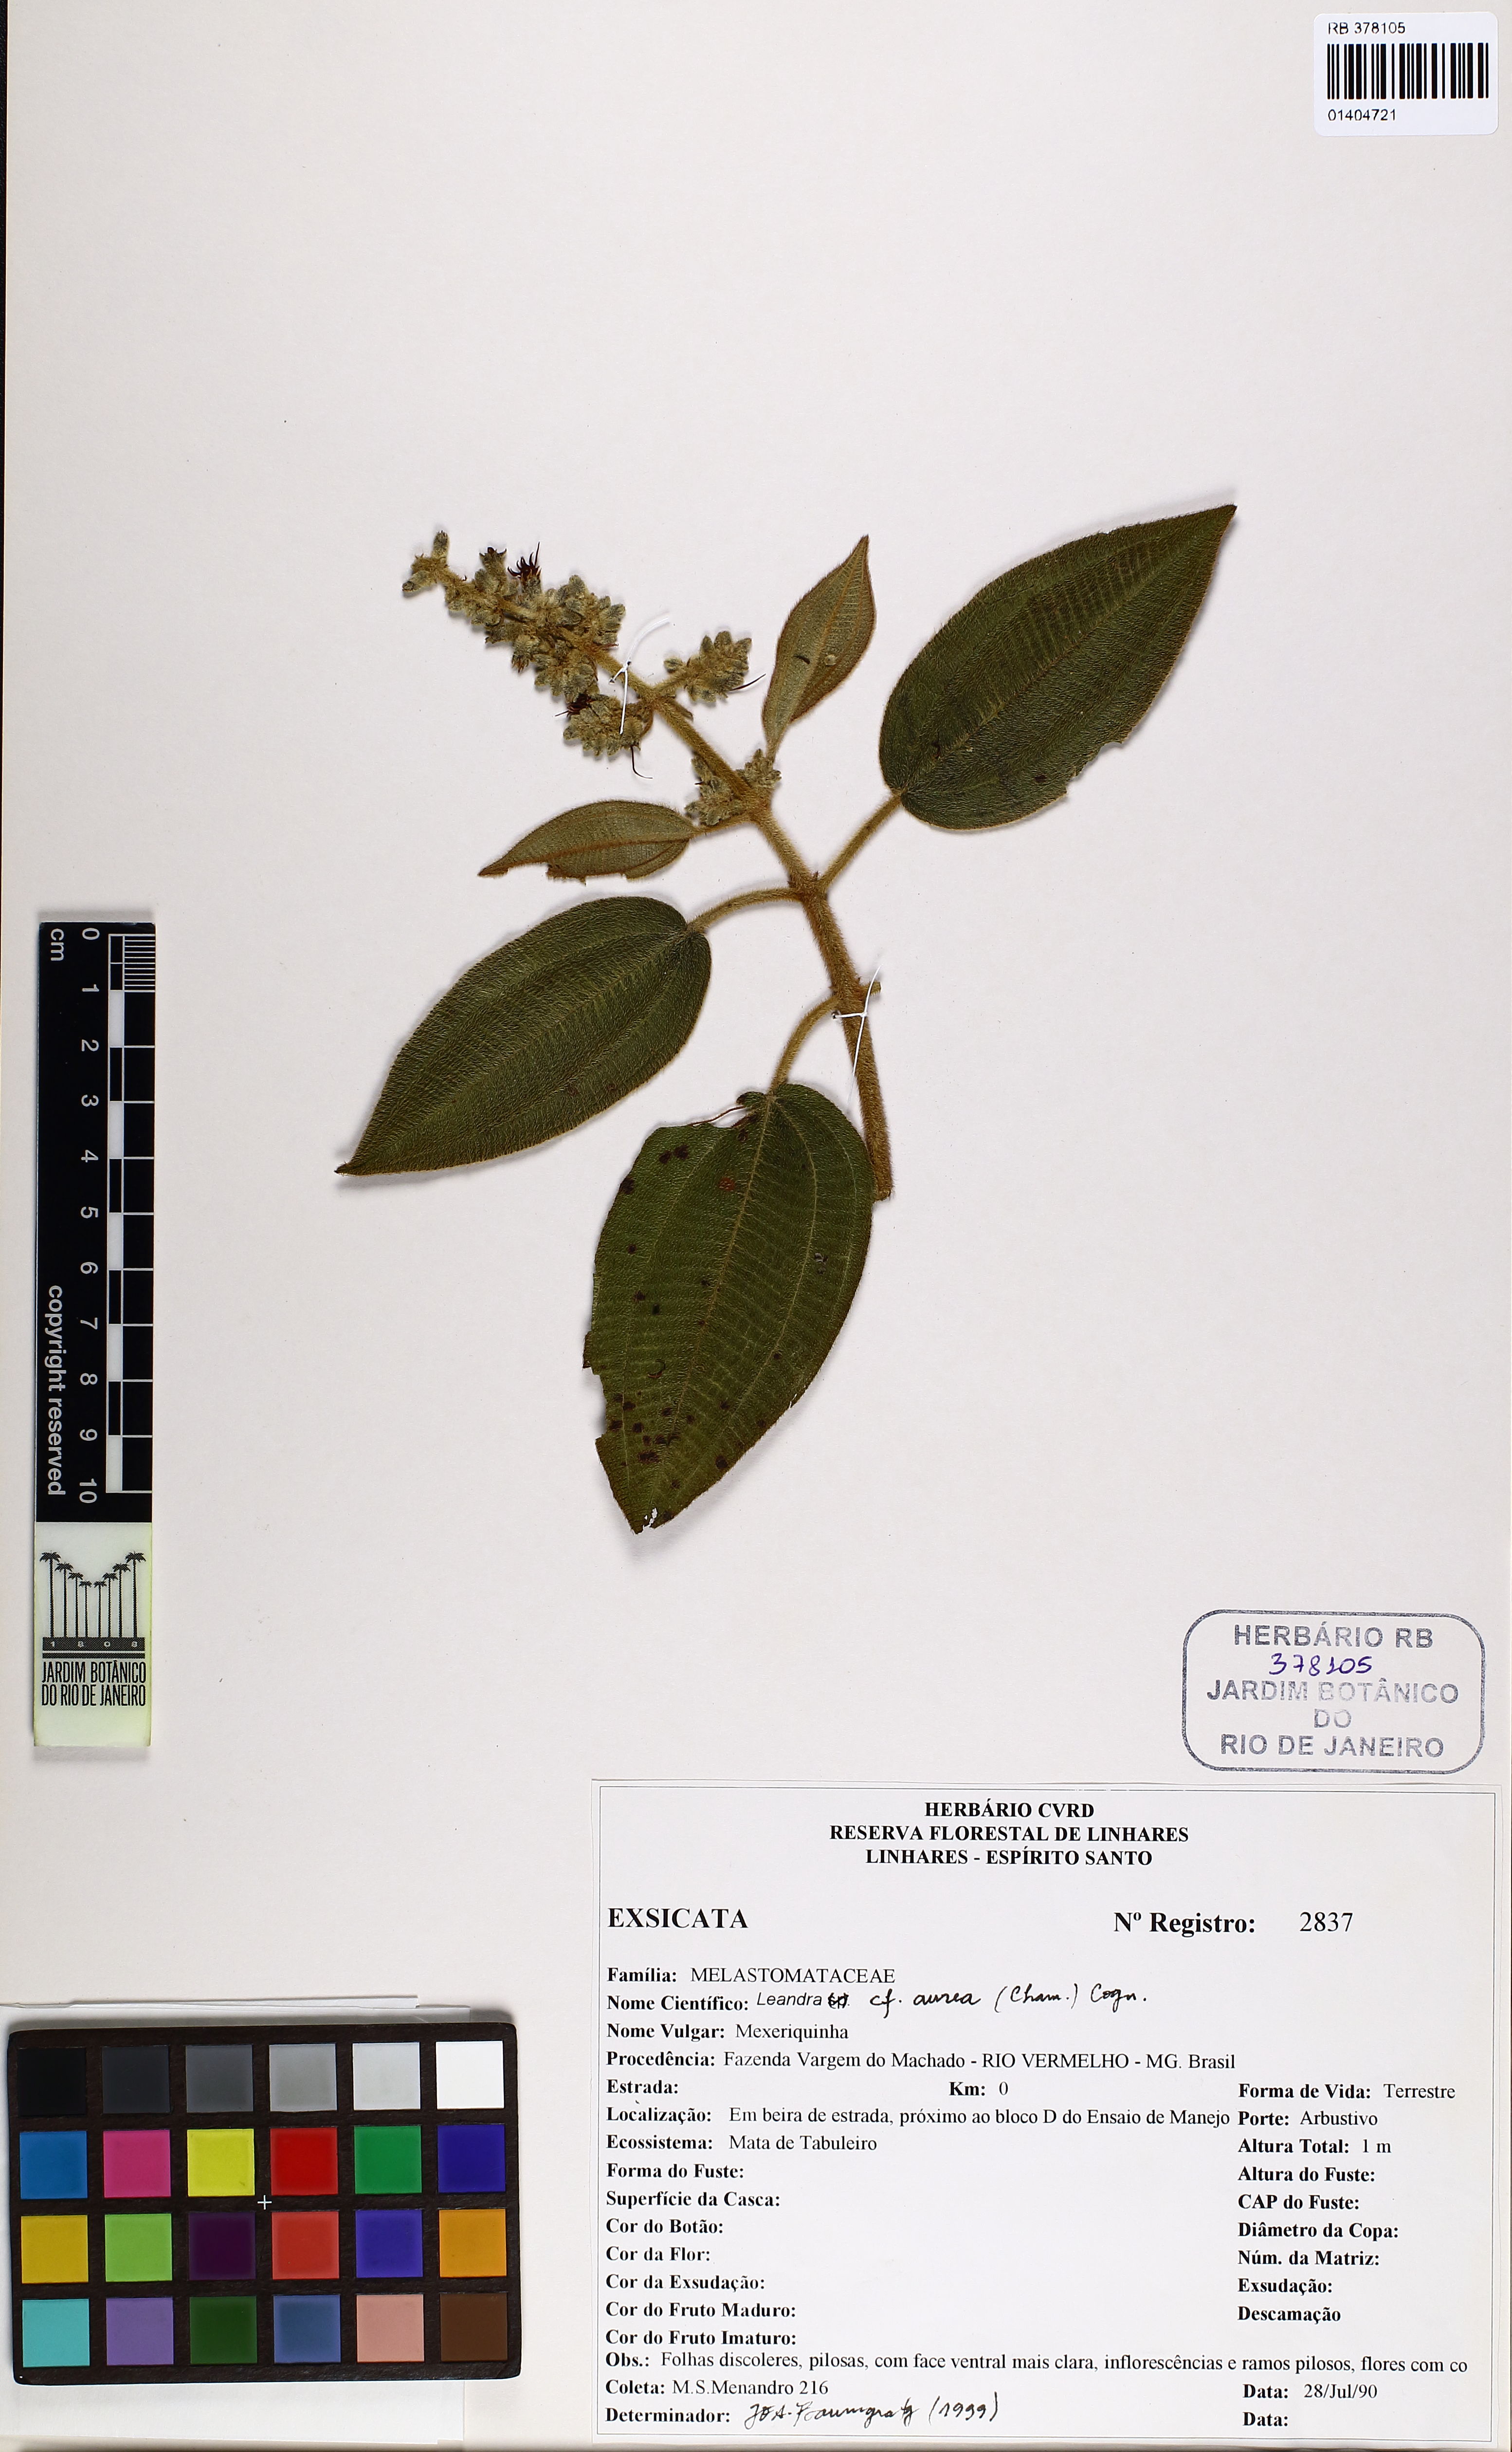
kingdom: Plantae
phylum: Tracheophyta
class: Magnoliopsida
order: Myrtales
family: Melastomataceae
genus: Miconia
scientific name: Miconia auricoma
